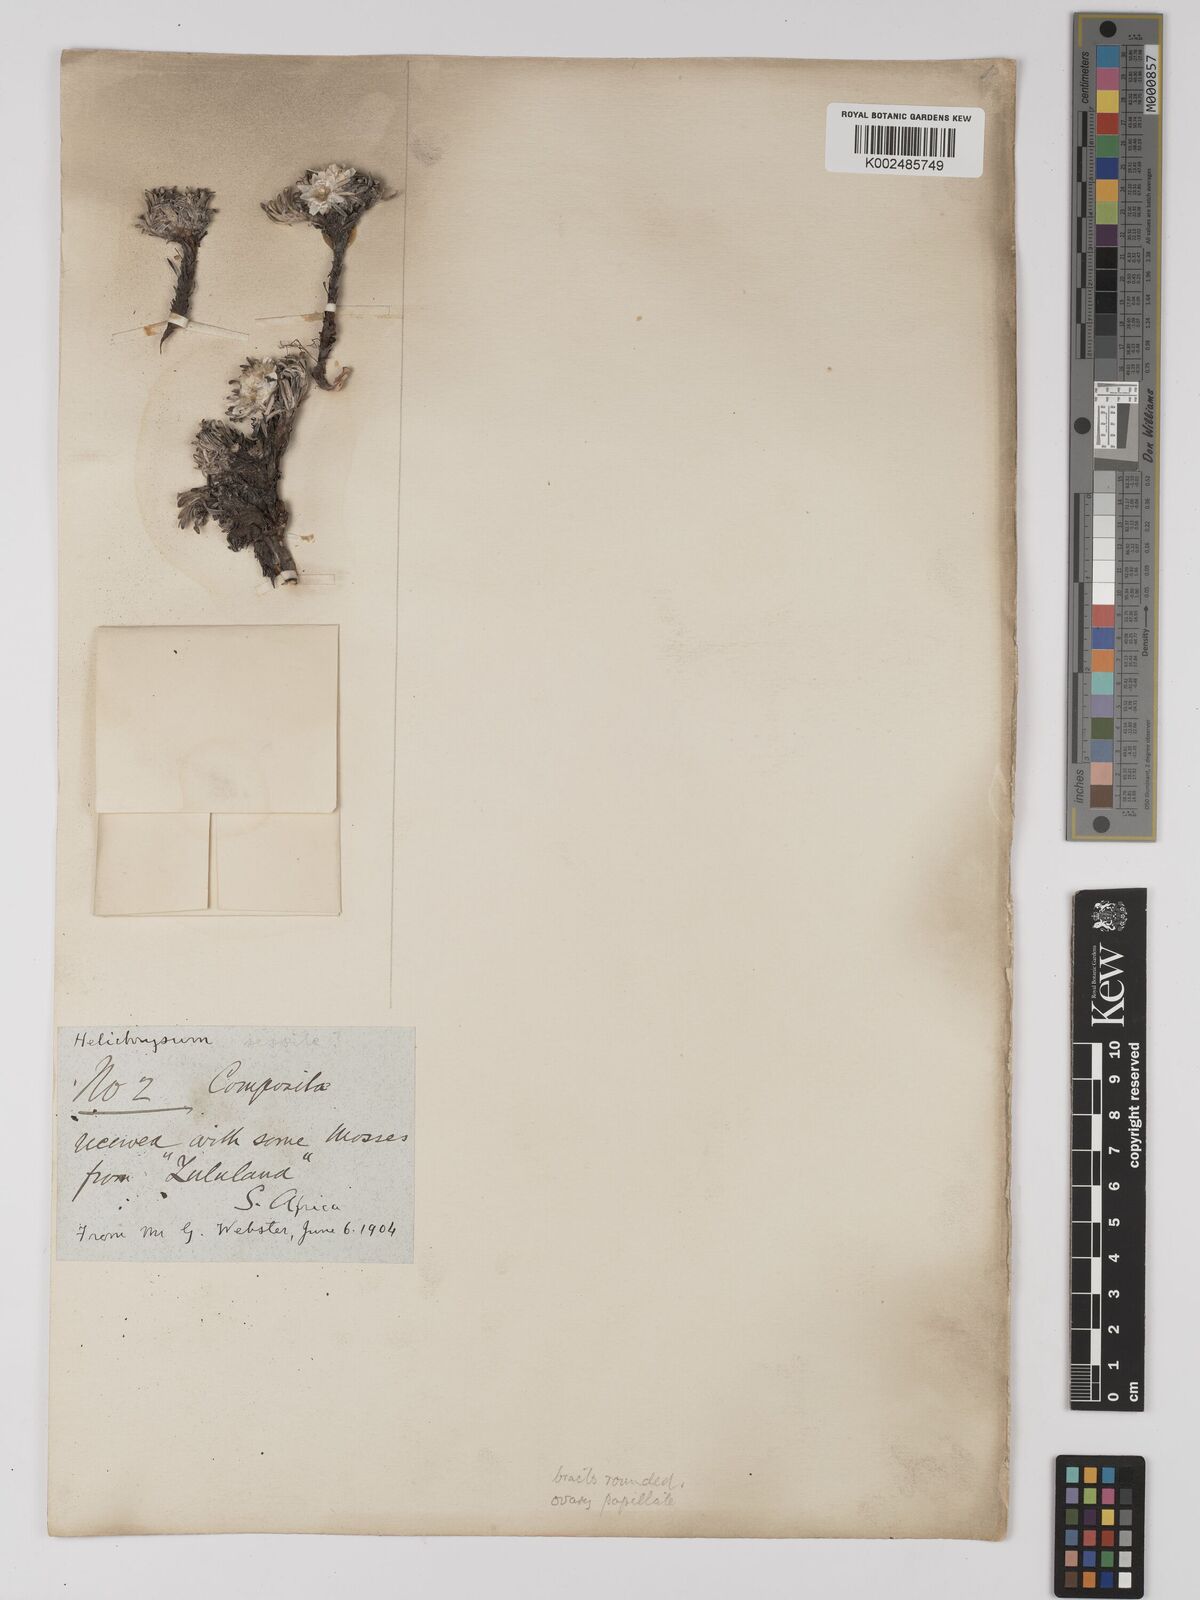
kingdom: Plantae
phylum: Tracheophyta
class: Magnoliopsida
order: Asterales
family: Asteraceae
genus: Helichrysum
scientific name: Helichrysum sessilioides
